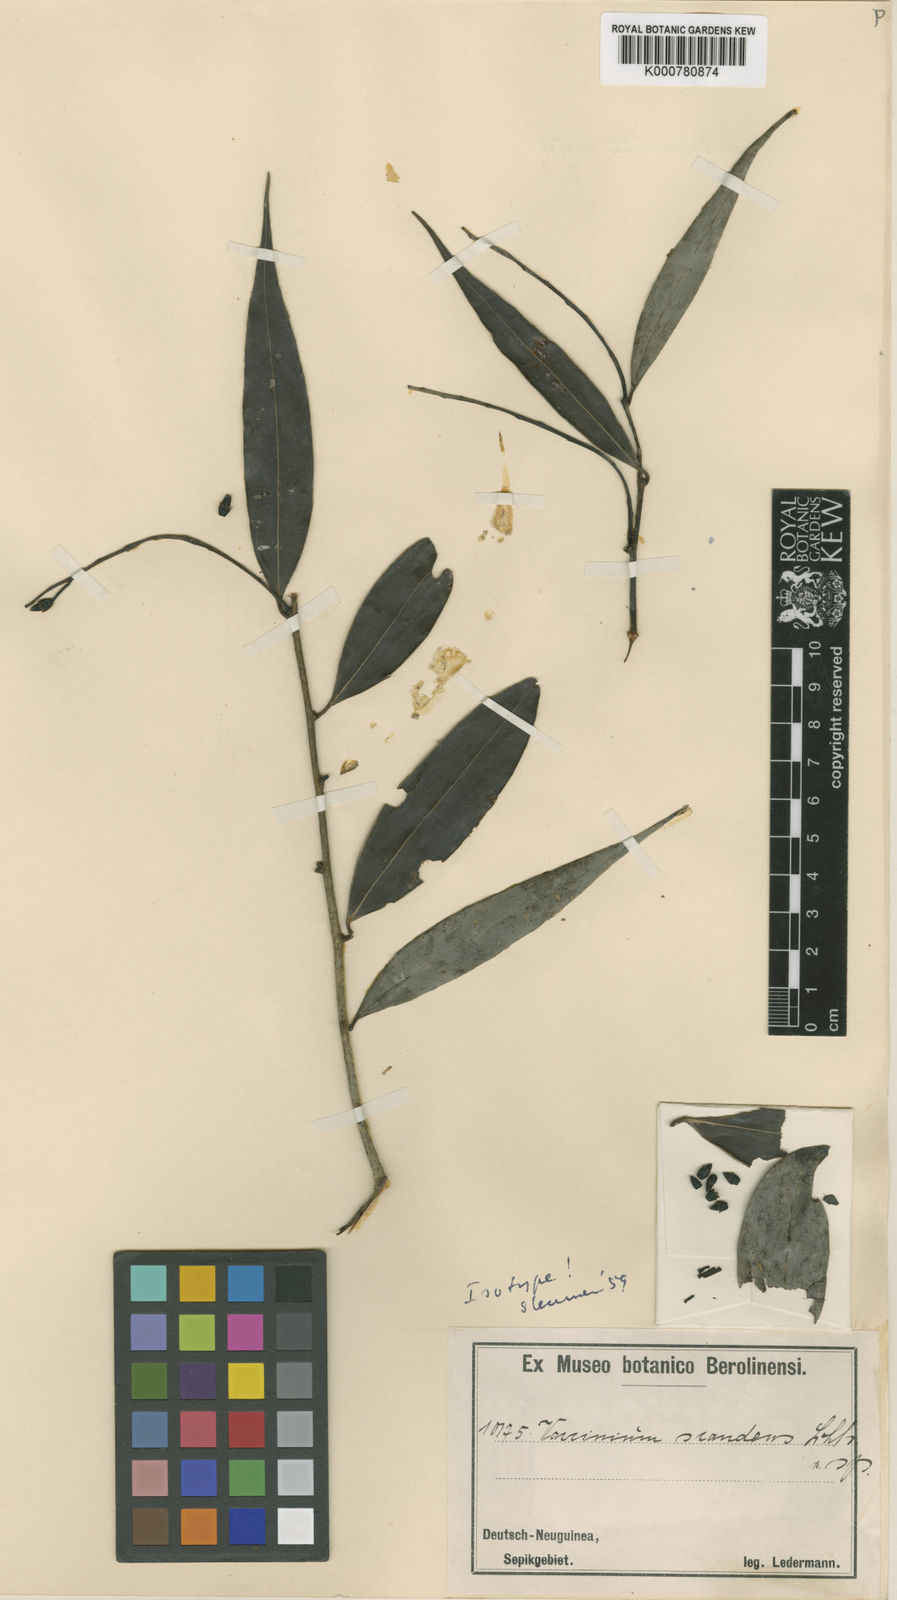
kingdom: Plantae
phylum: Tracheophyta
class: Magnoliopsida
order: Ericales
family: Ericaceae
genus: Vaccinium
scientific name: Vaccinium scandens
